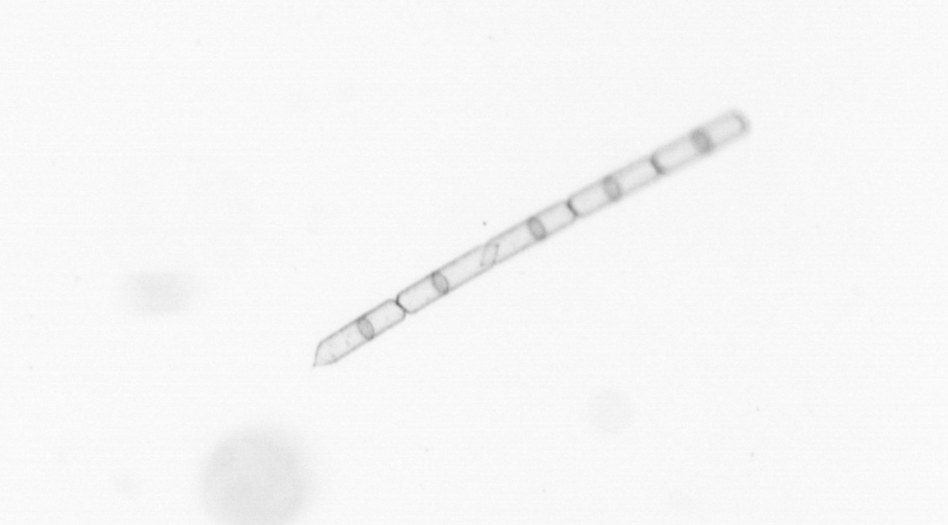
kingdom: Chromista
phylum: Ochrophyta
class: Bacillariophyceae
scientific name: Bacillariophyceae
